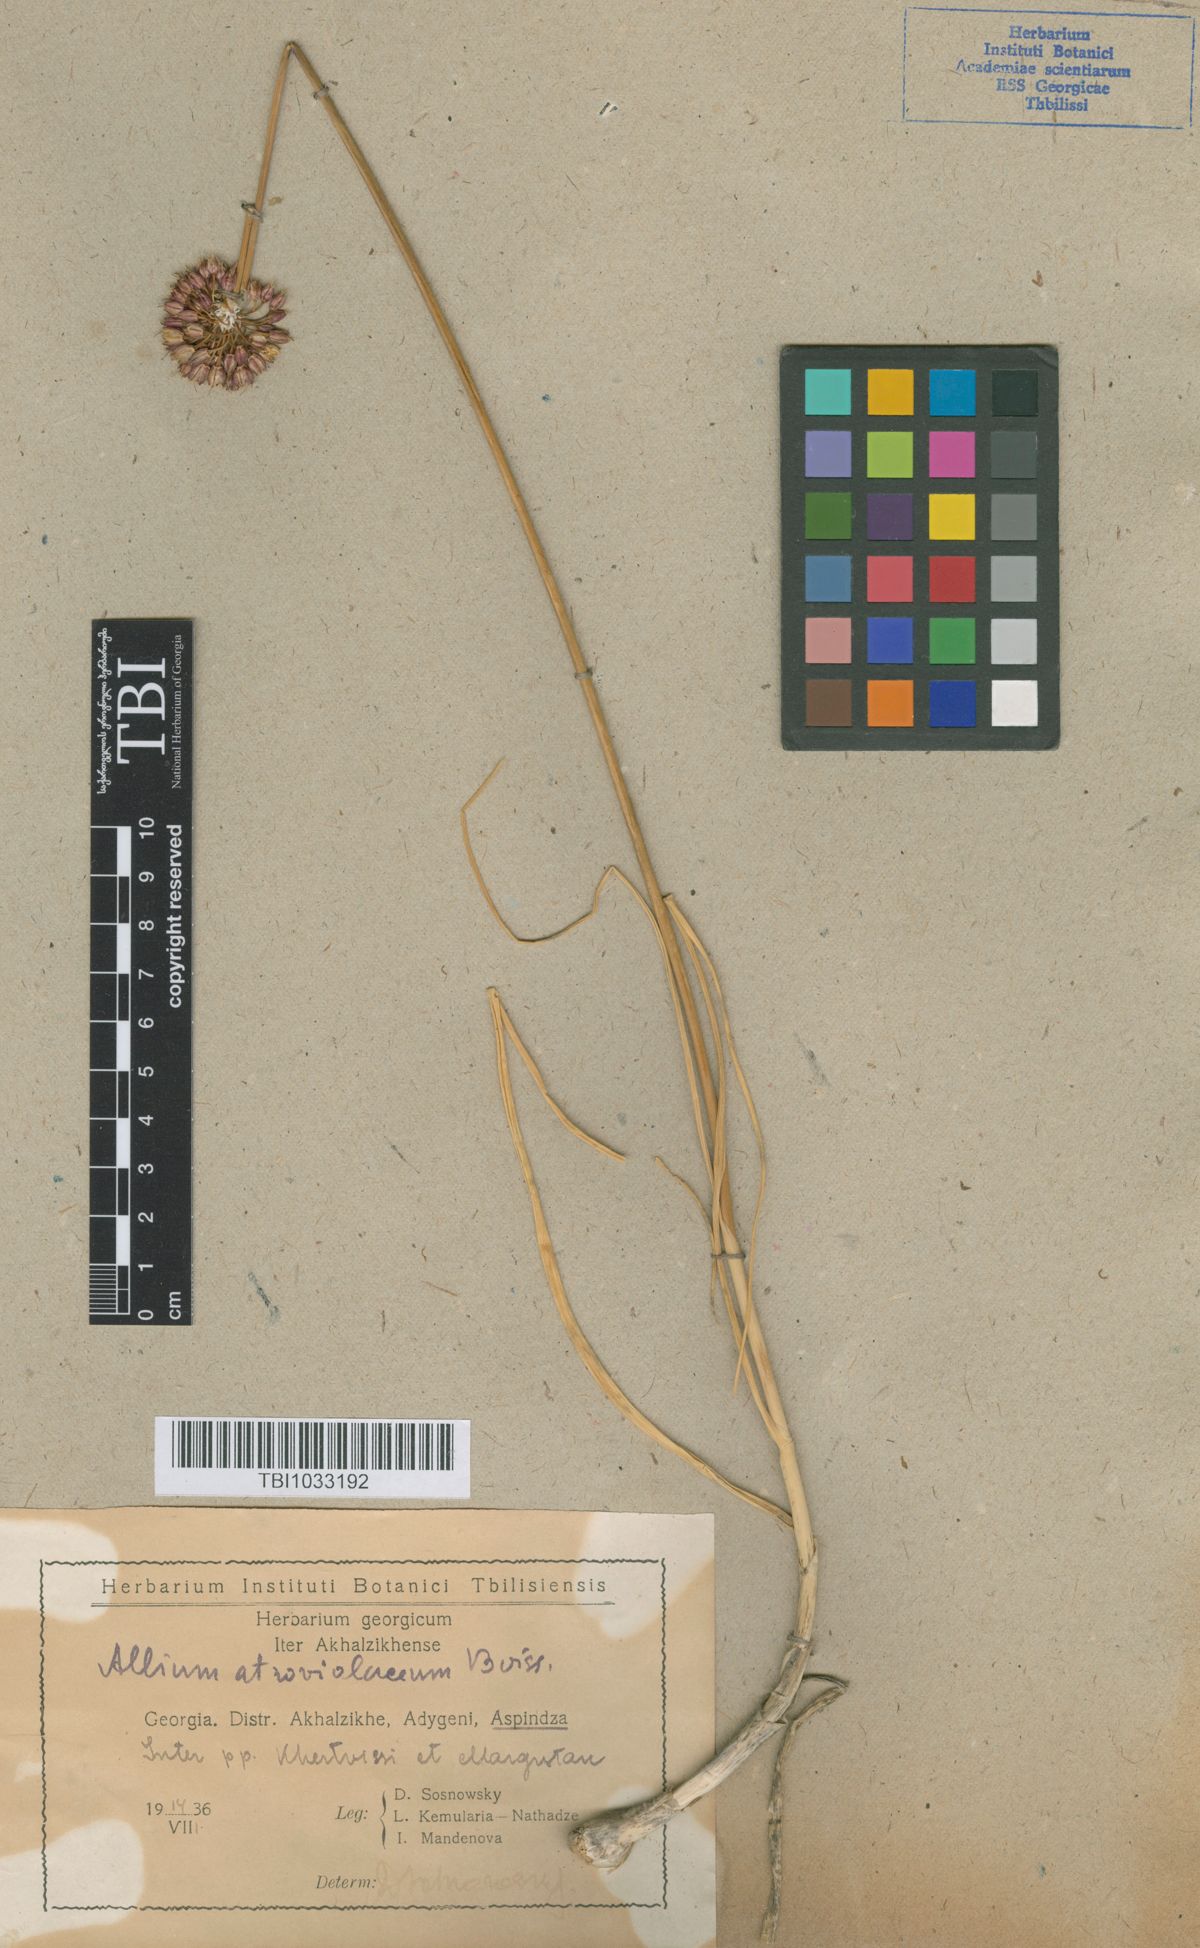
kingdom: Plantae
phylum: Tracheophyta
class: Liliopsida
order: Asparagales
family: Amaryllidaceae
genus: Allium
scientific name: Allium atroviolaceum
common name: Broadleaf wild leek
